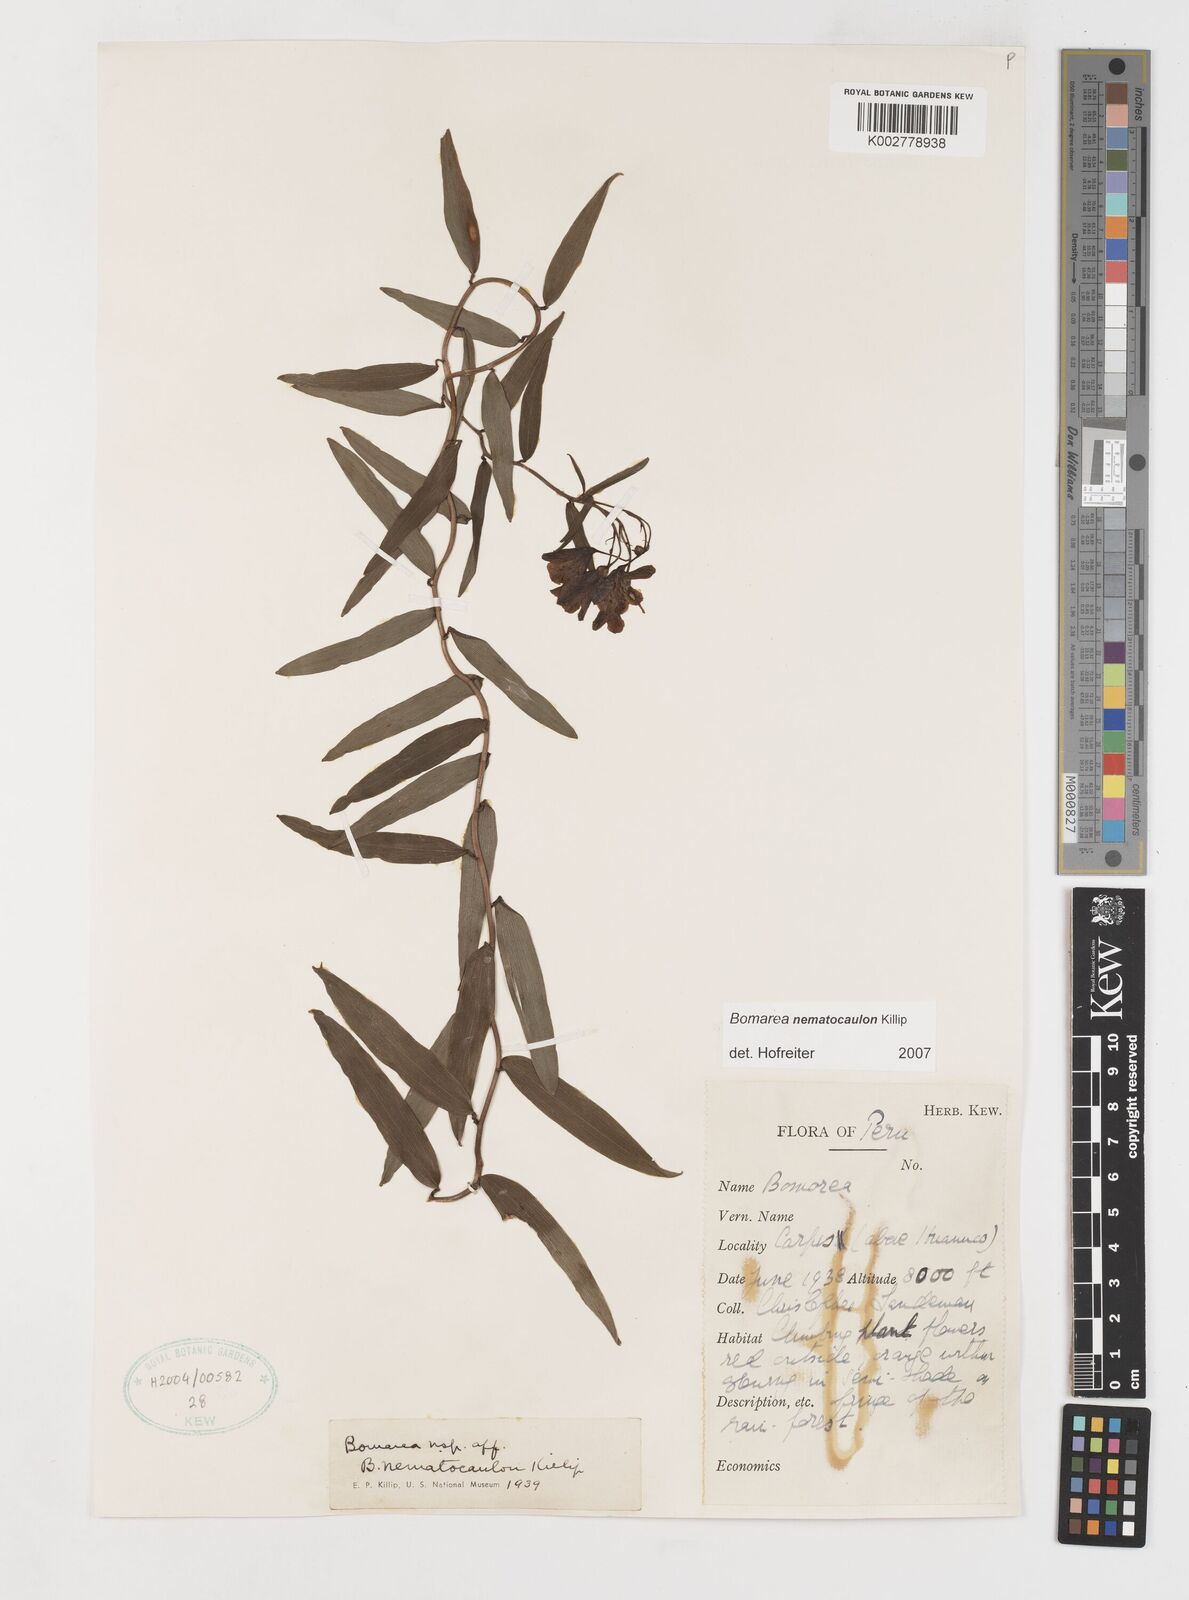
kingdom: Plantae
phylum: Tracheophyta
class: Liliopsida
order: Liliales
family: Alstroemeriaceae
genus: Bomarea
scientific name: Bomarea nematocaulon
